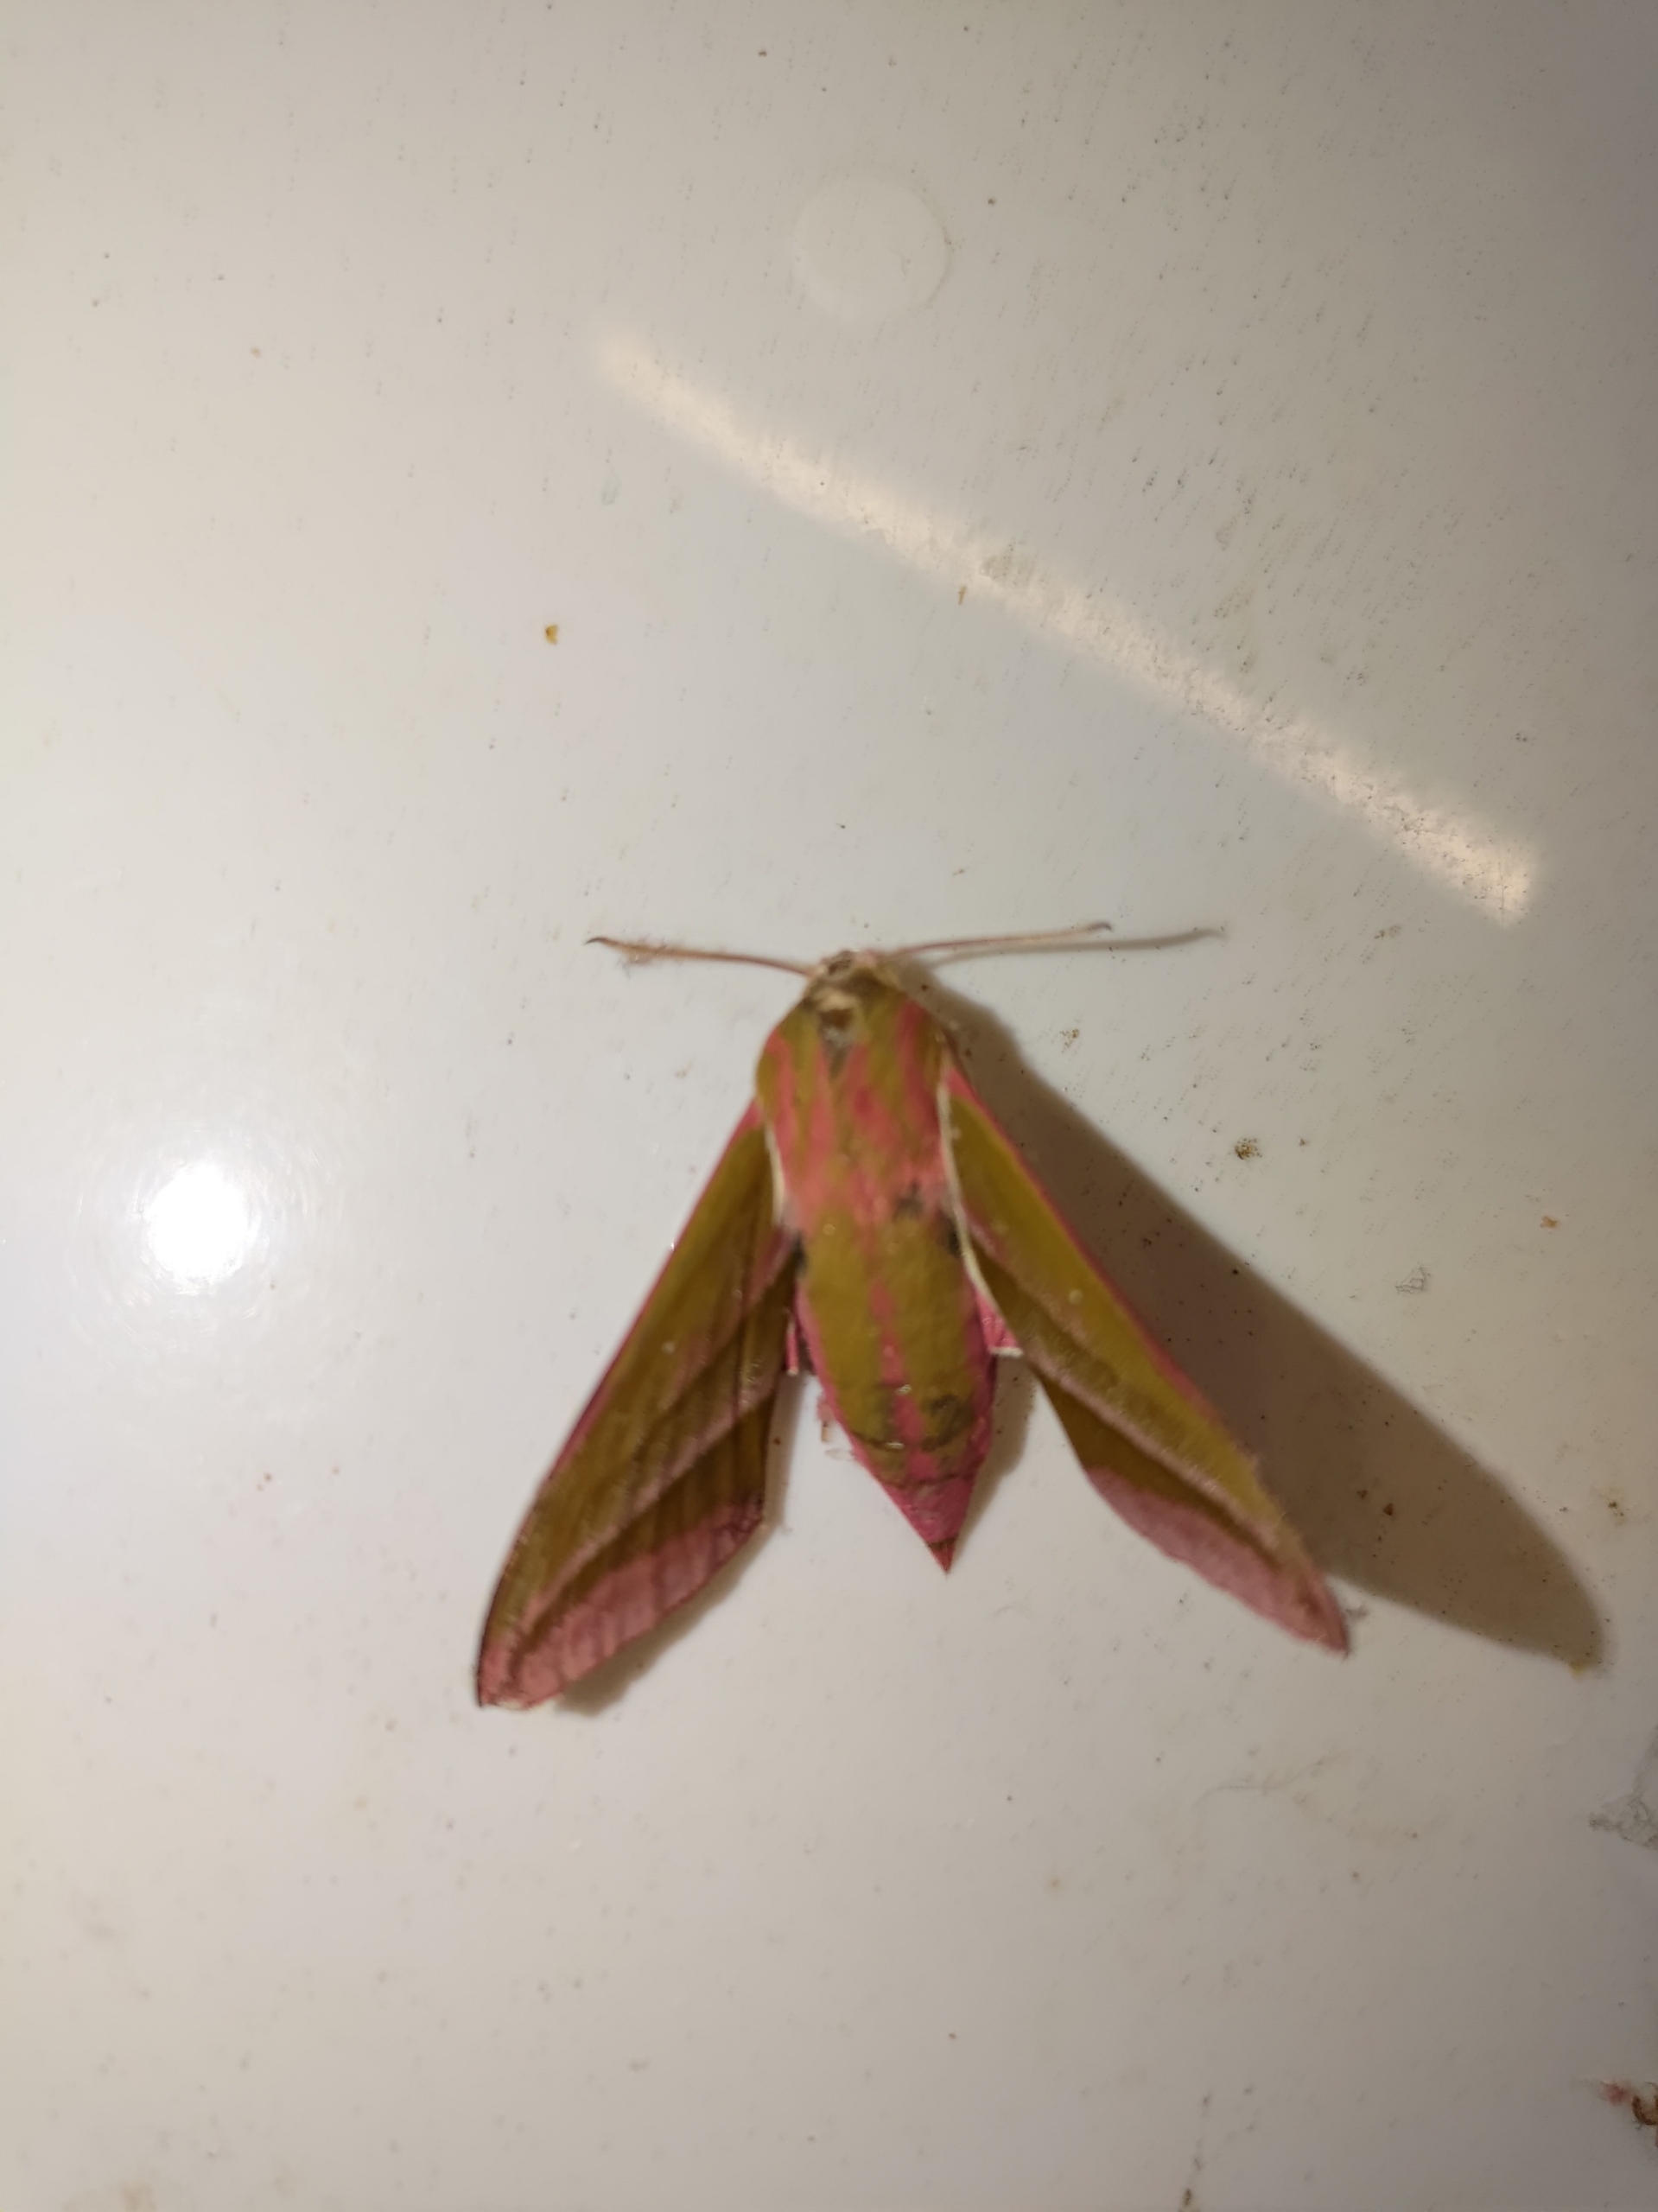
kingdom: Animalia
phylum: Arthropoda
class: Insecta
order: Lepidoptera
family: Sphingidae
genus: Deilephila
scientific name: Deilephila elpenor
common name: Dueurtsværmer
